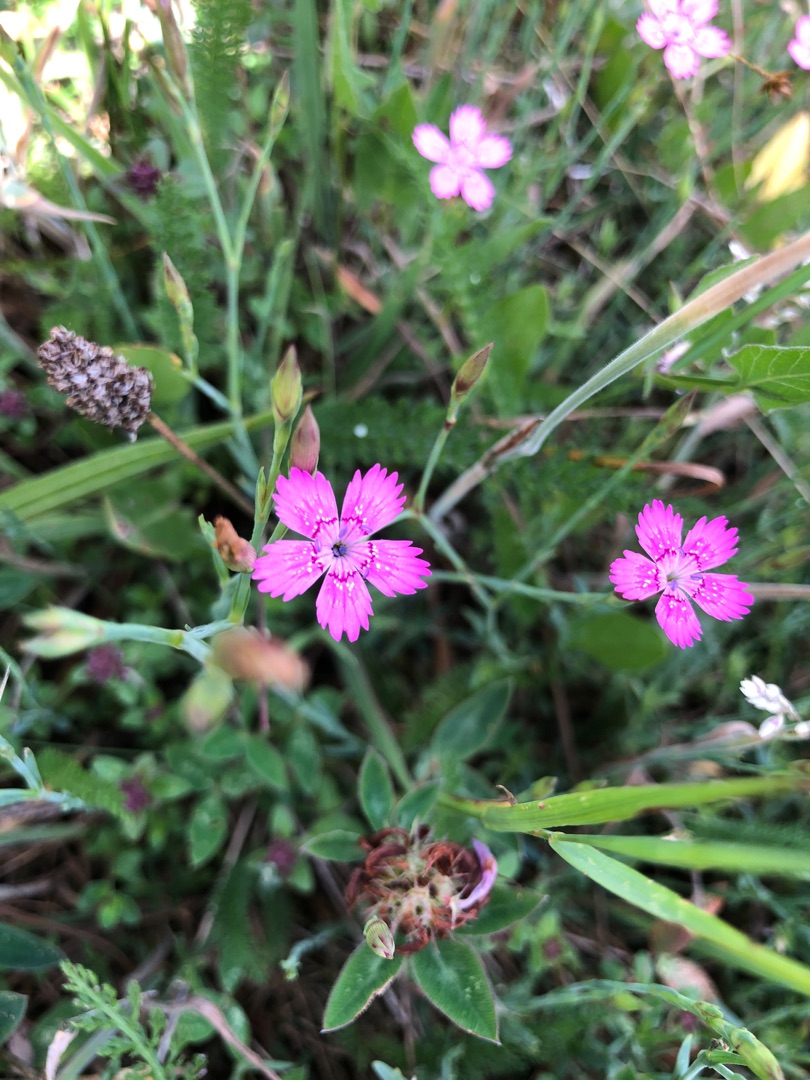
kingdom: Plantae
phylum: Tracheophyta
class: Magnoliopsida
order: Caryophyllales
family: Caryophyllaceae
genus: Dianthus
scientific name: Dianthus deltoides
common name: Bakke-nellike
